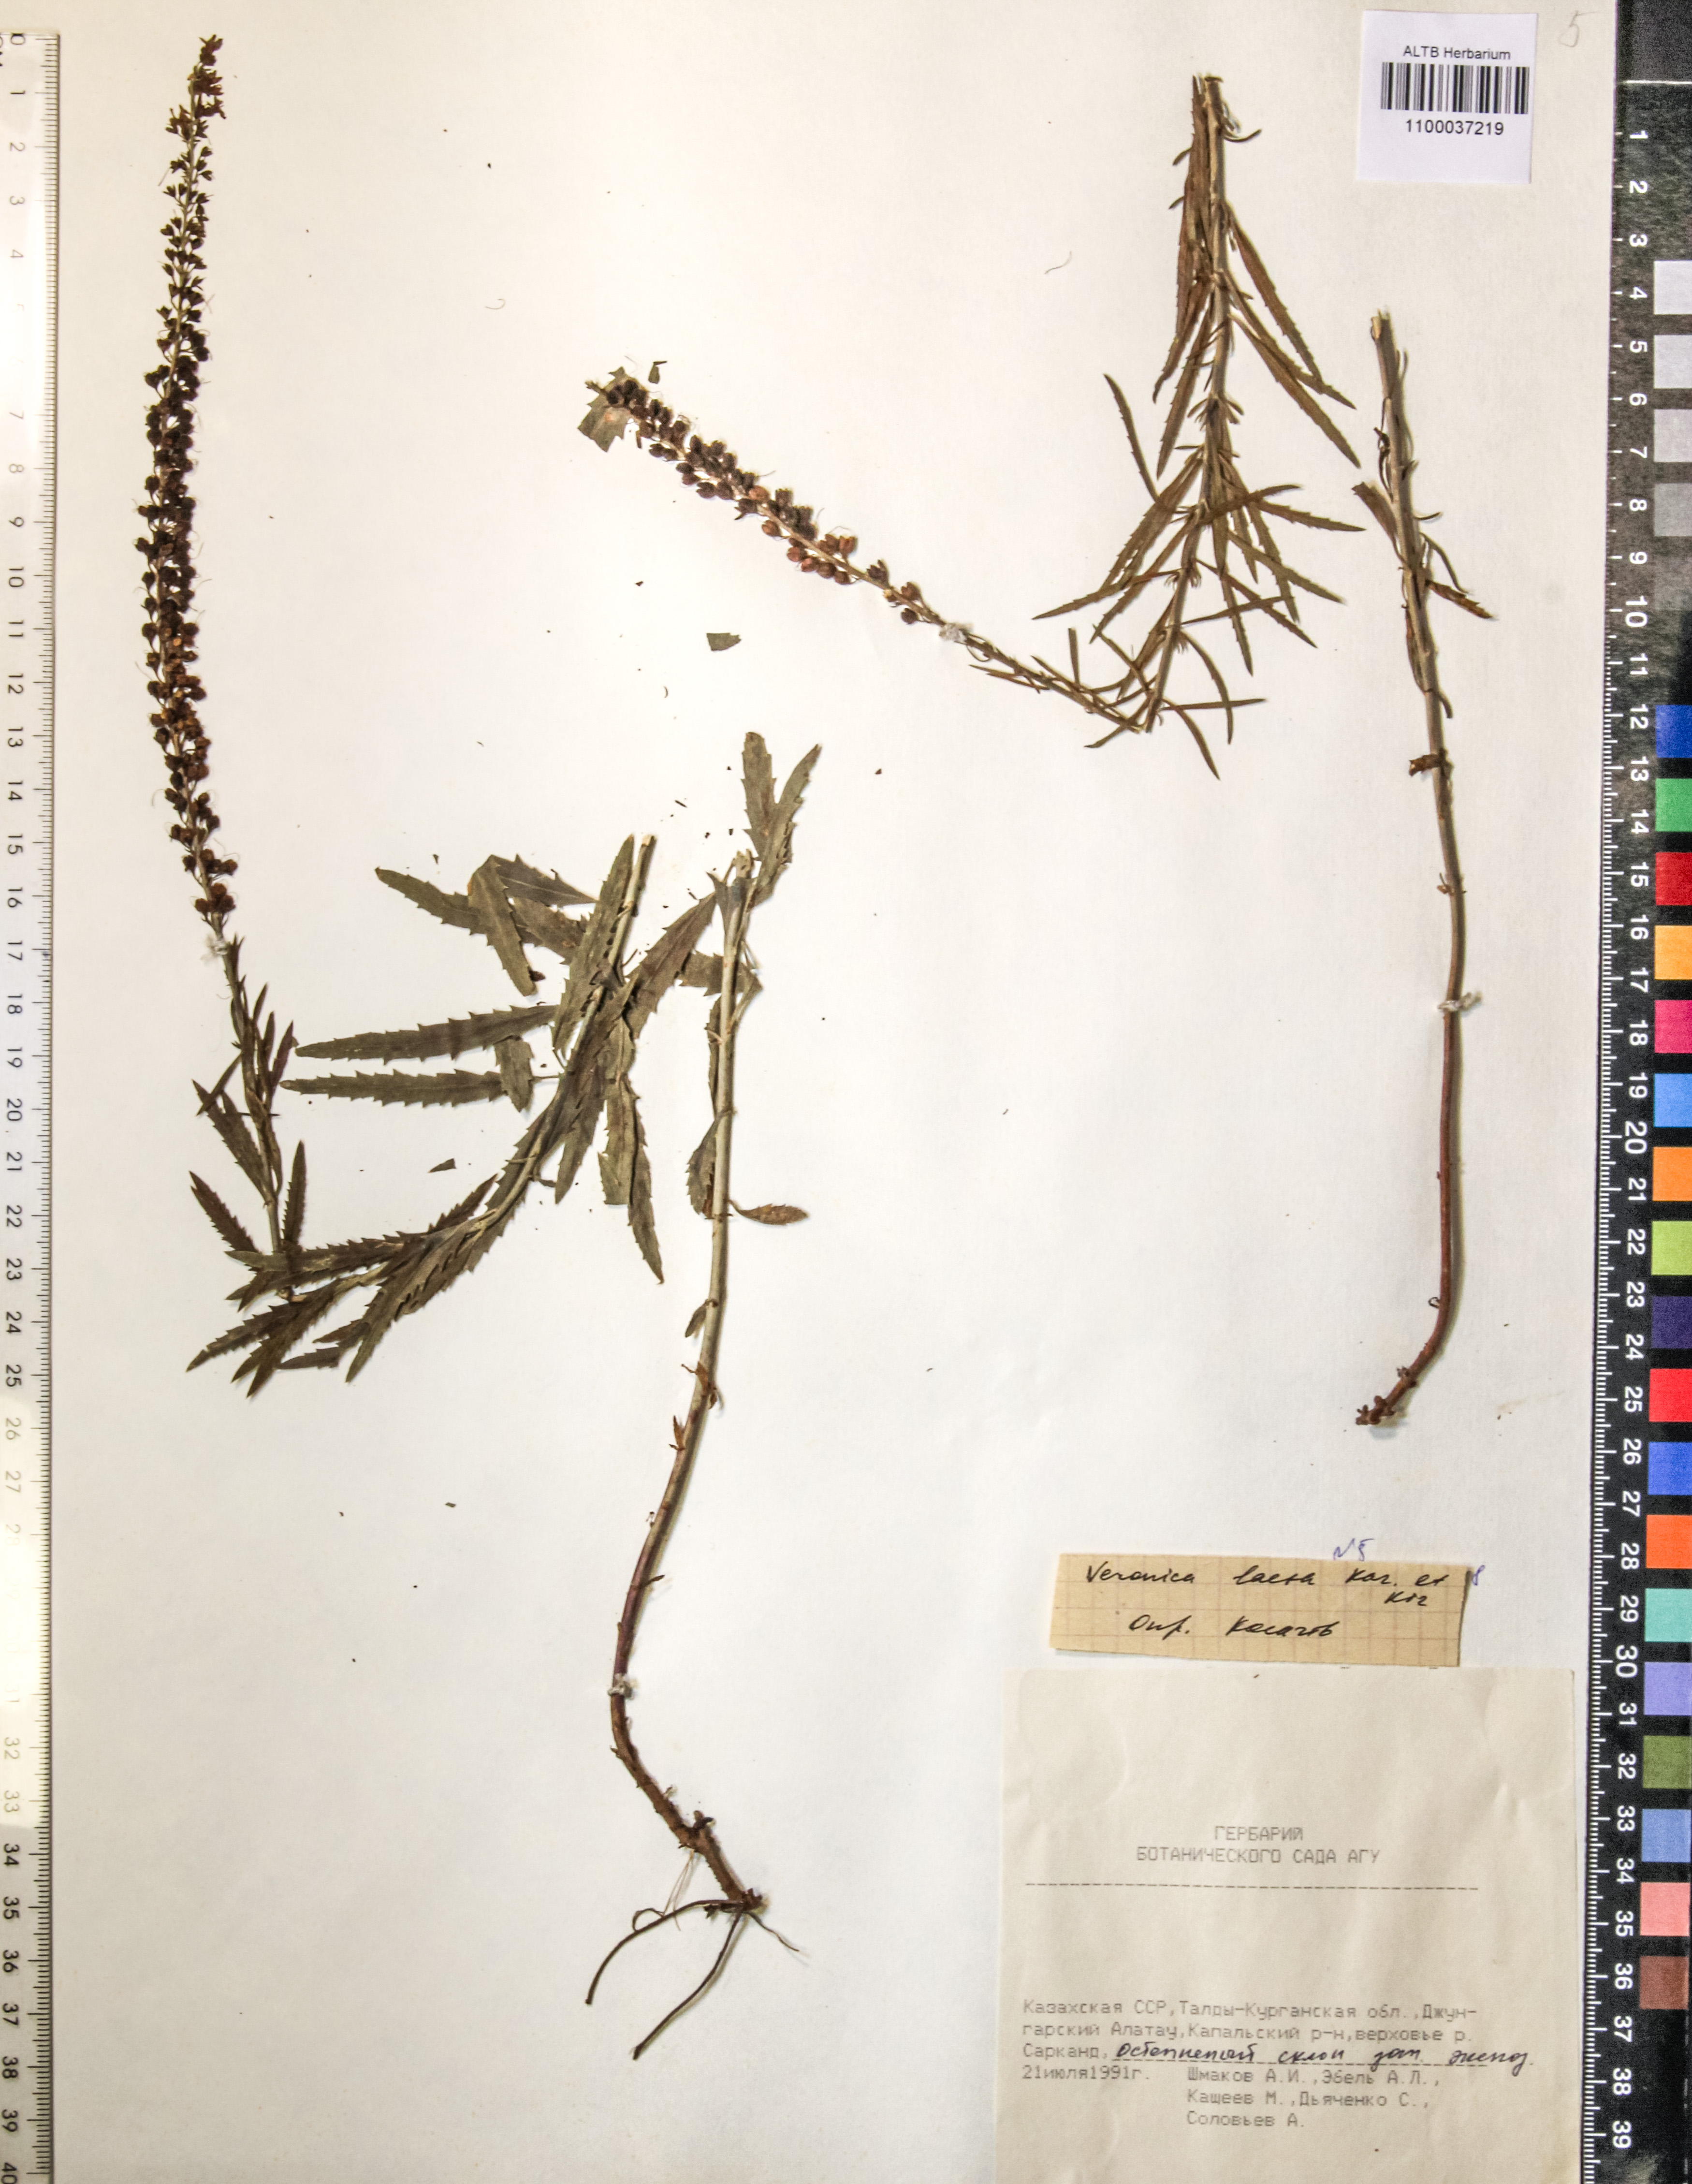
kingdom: Plantae
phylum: Tracheophyta
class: Magnoliopsida
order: Lamiales
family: Plantaginaceae
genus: Veronica
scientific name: Veronica laeta
